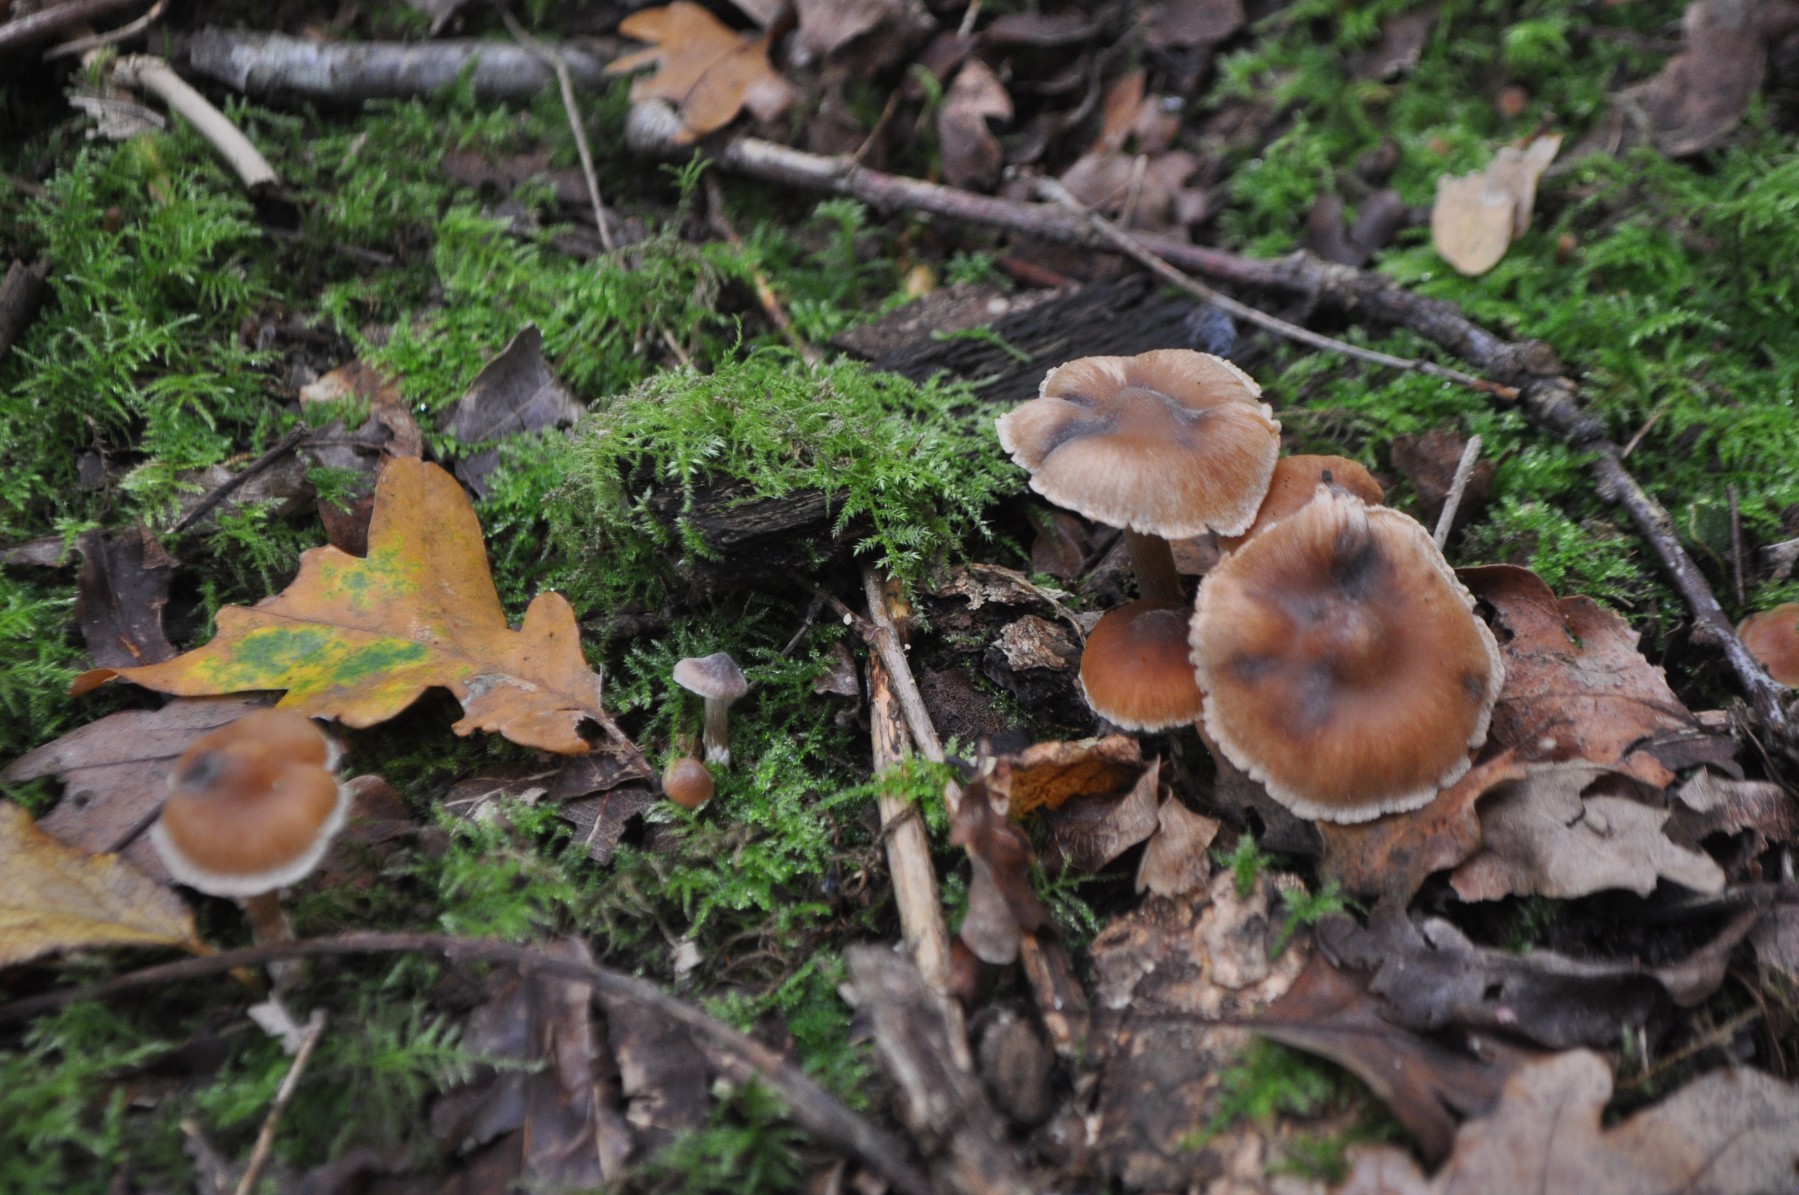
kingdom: Fungi
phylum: Basidiomycota
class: Agaricomycetes
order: Agaricales
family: Cortinariaceae
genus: Cortinarius
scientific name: Cortinarius incisior
